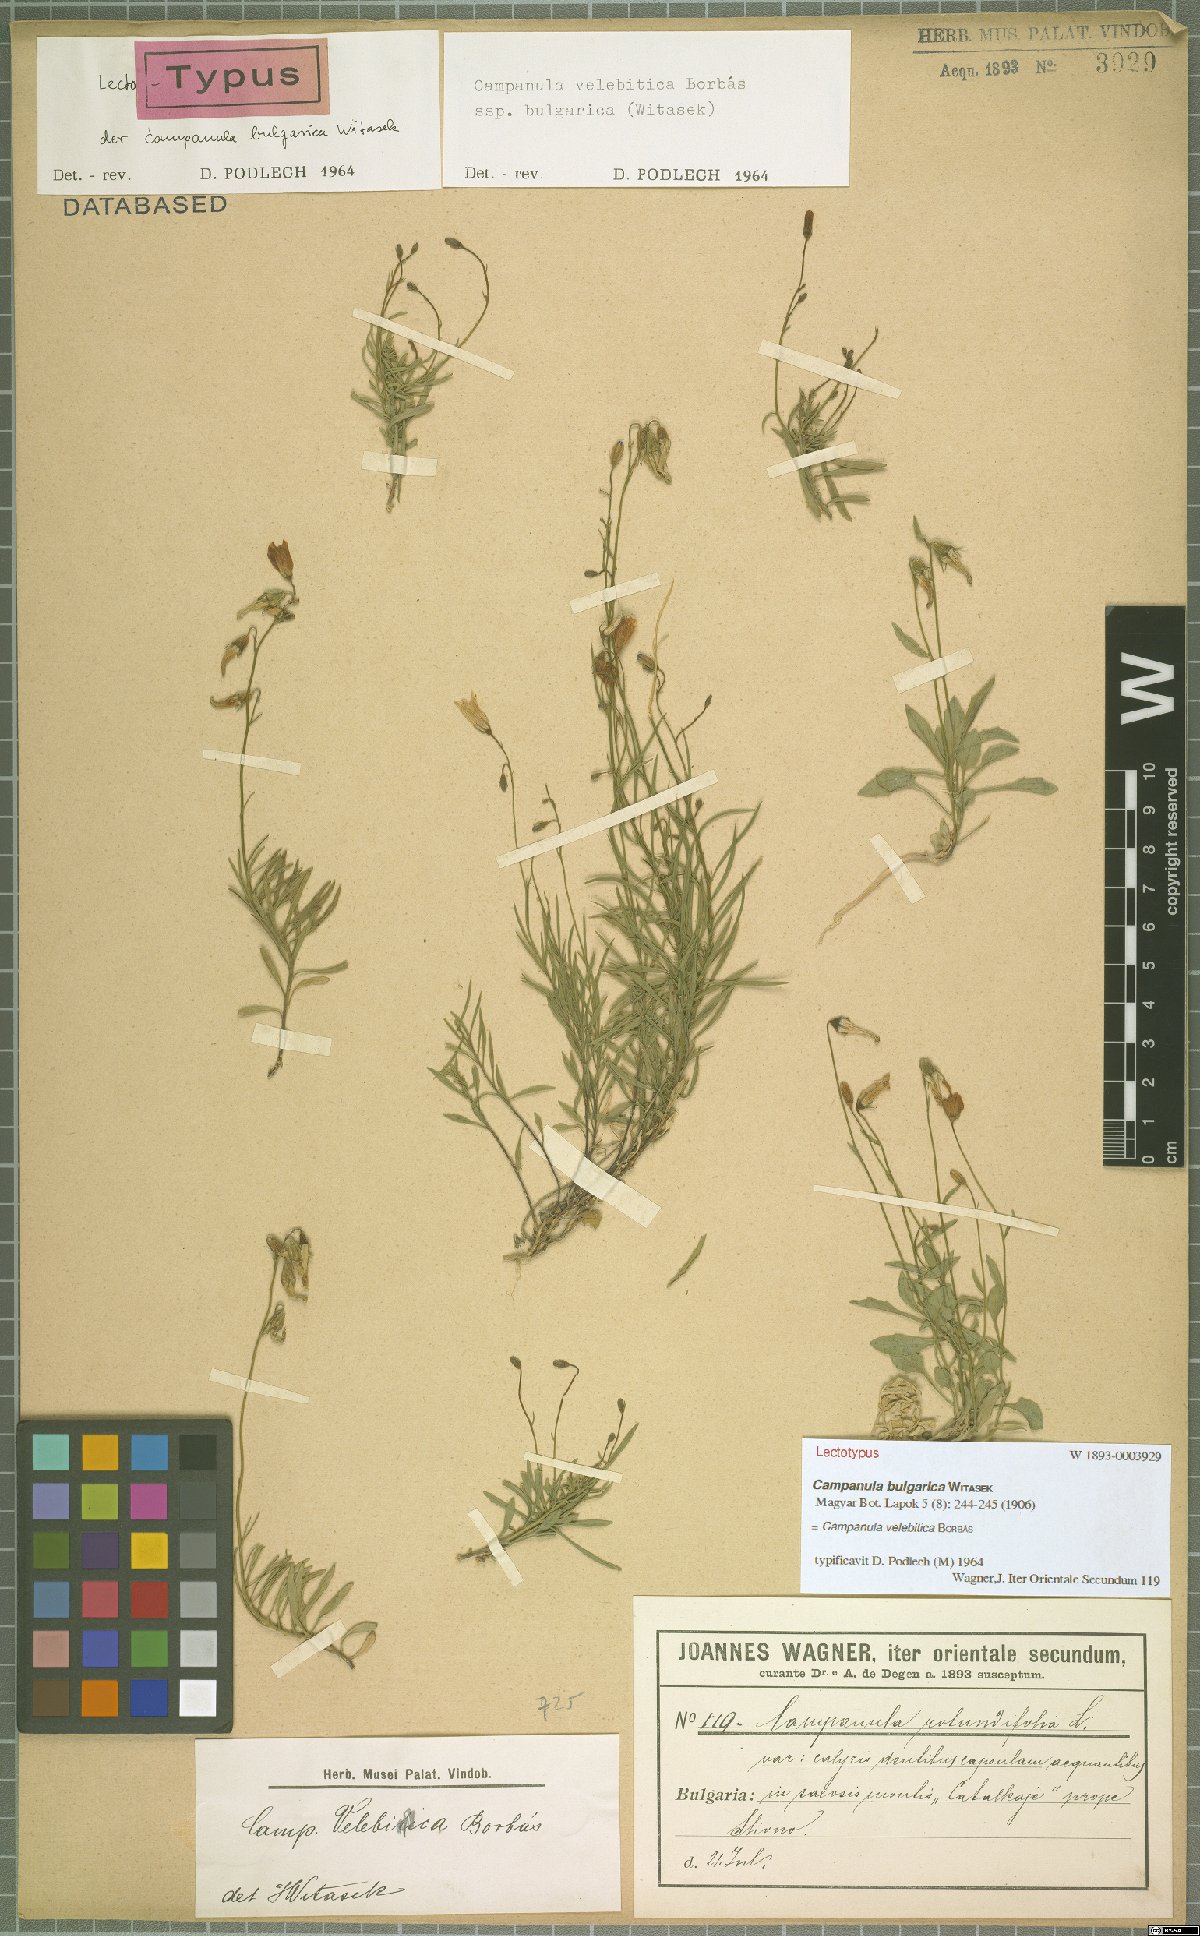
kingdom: Plantae
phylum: Tracheophyta
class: Magnoliopsida
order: Asterales
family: Campanulaceae
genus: Campanula
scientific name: Campanula velebitica
